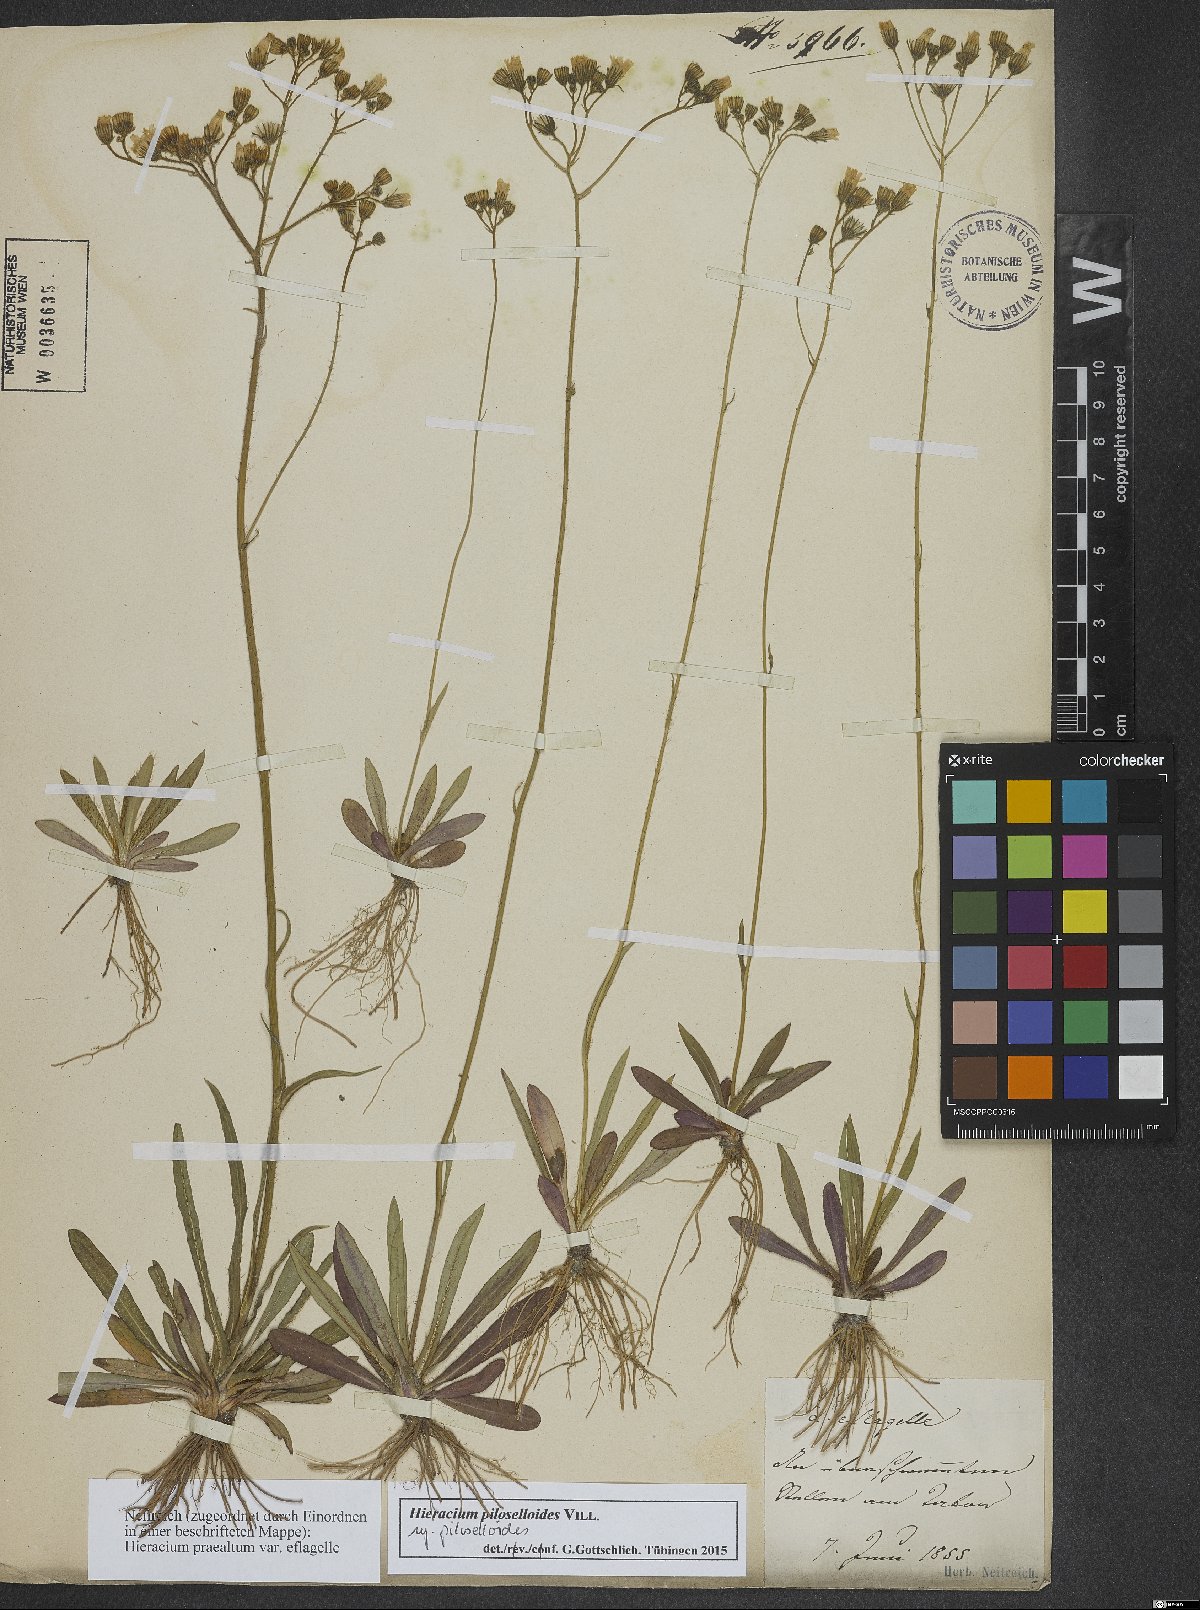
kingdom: Plantae
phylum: Tracheophyta
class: Magnoliopsida
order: Asterales
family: Asteraceae
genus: Pilosella
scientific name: Pilosella piloselloides
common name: Glaucous king-devil
